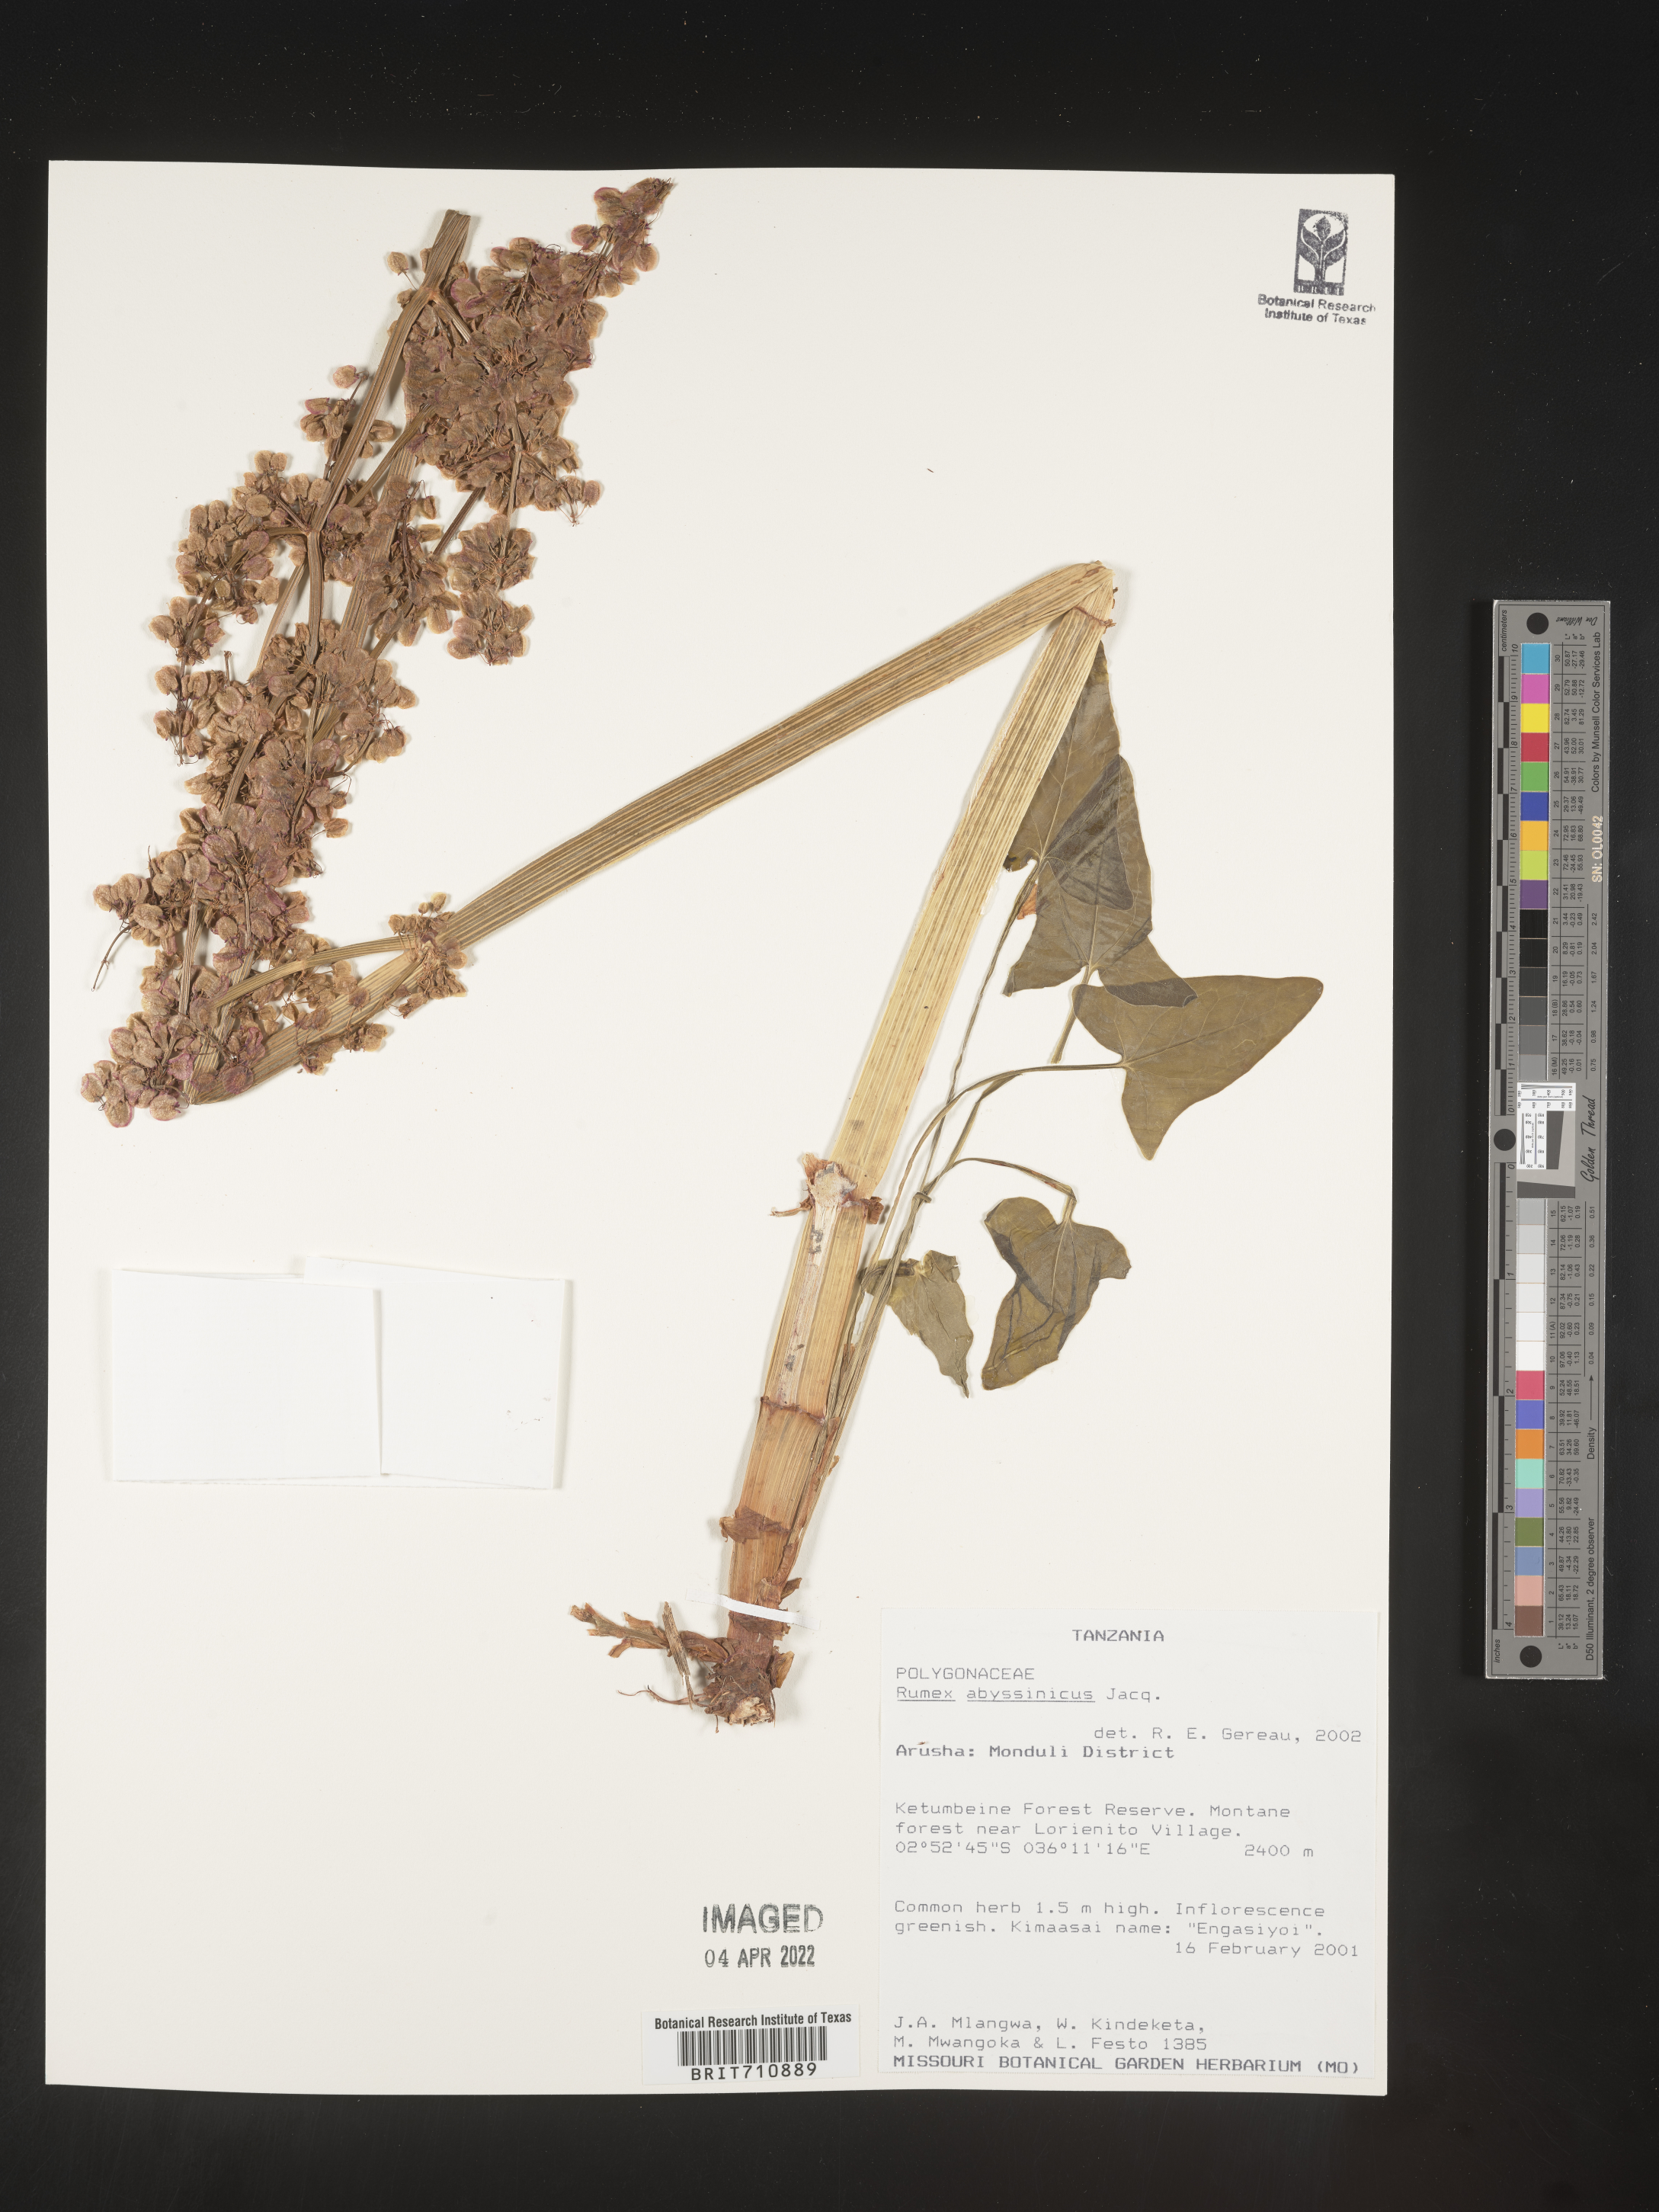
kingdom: Plantae
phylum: Tracheophyta
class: Magnoliopsida
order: Caryophyllales
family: Polygonaceae
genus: Rumex
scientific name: Rumex
